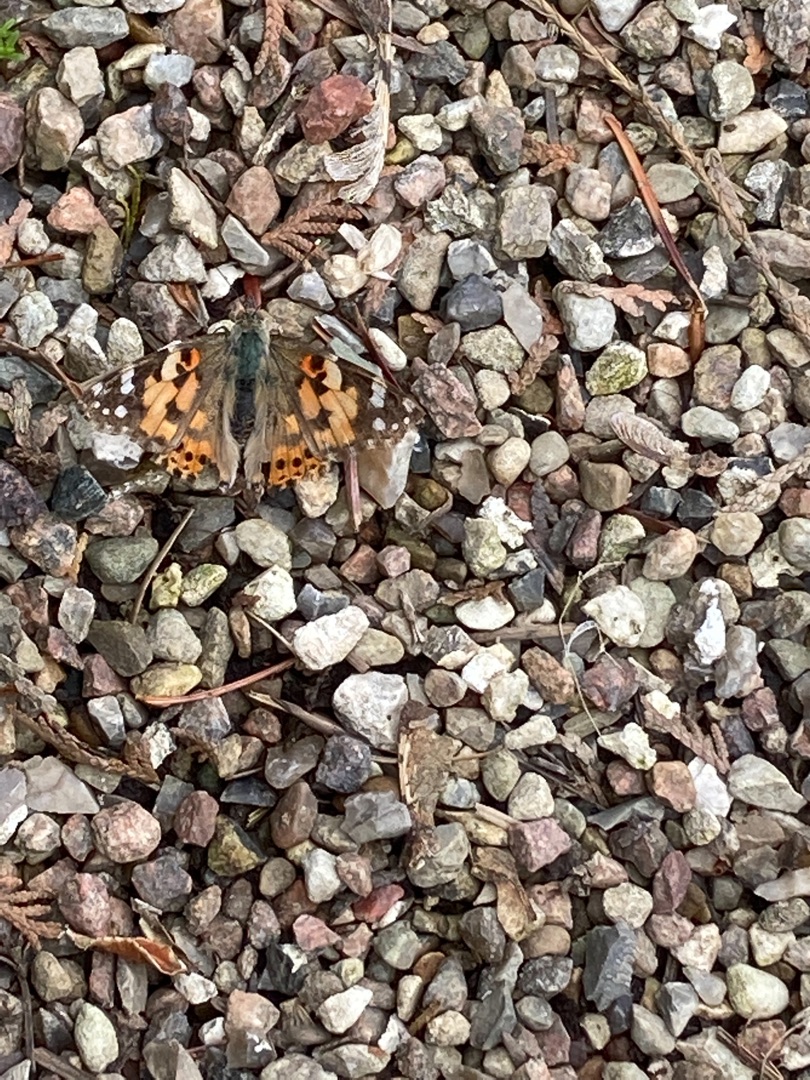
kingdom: Animalia
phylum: Arthropoda
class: Insecta
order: Lepidoptera
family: Nymphalidae
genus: Vanessa
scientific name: Vanessa cardui
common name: Tidselsommerfugl
